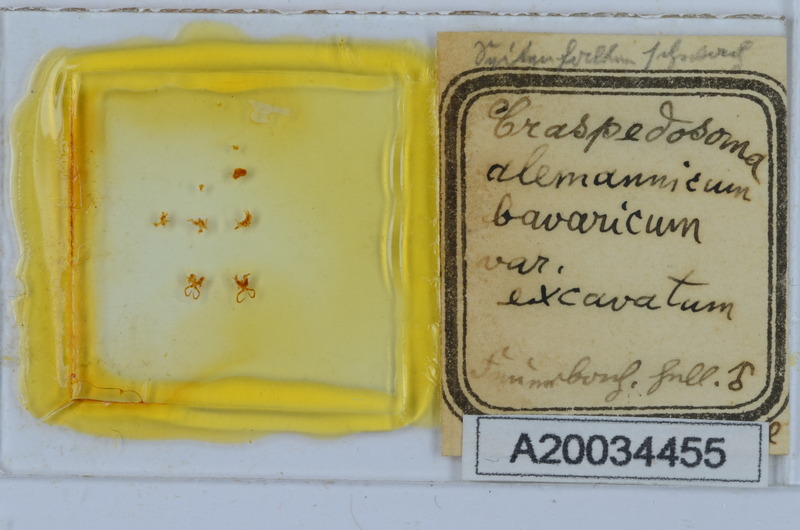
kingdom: Animalia
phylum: Arthropoda
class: Diplopoda
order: Chordeumatida
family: Craspedosomatidae
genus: Craspedosoma
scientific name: Craspedosoma rawlinsii
